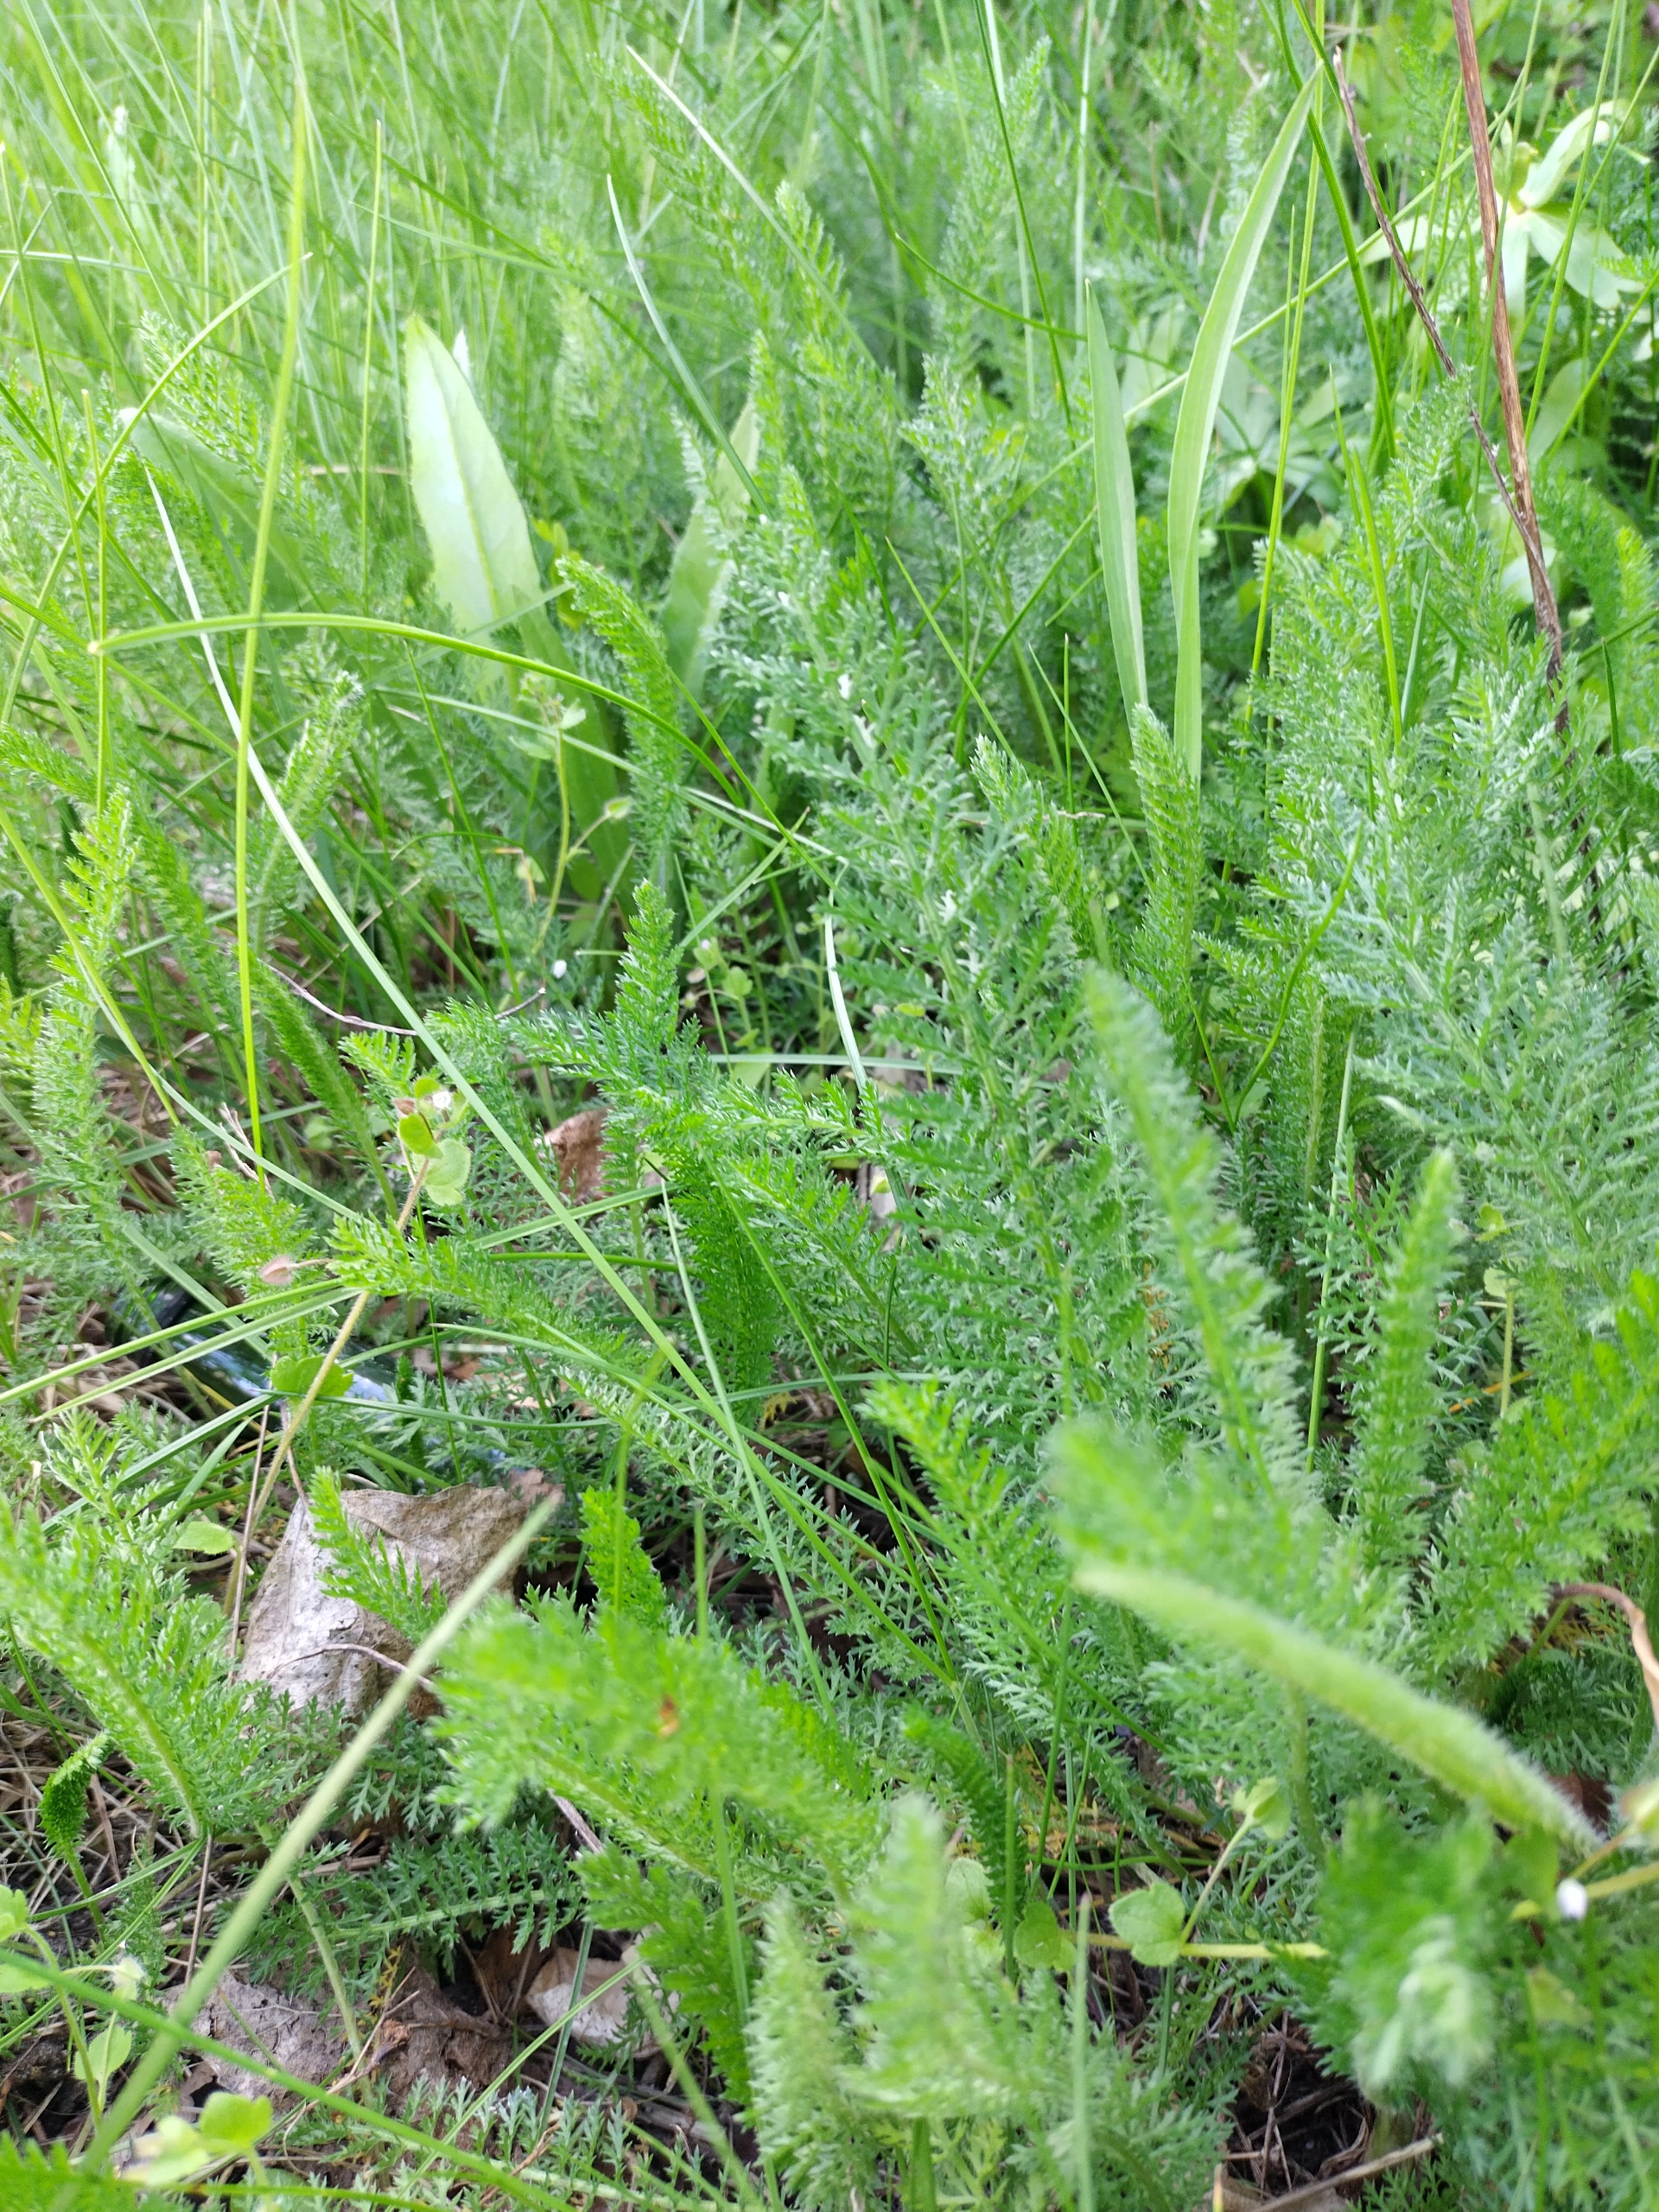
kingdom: Plantae
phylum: Tracheophyta
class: Magnoliopsida
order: Asterales
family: Asteraceae
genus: Achillea
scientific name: Achillea millefolium
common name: Almindelig røllike
